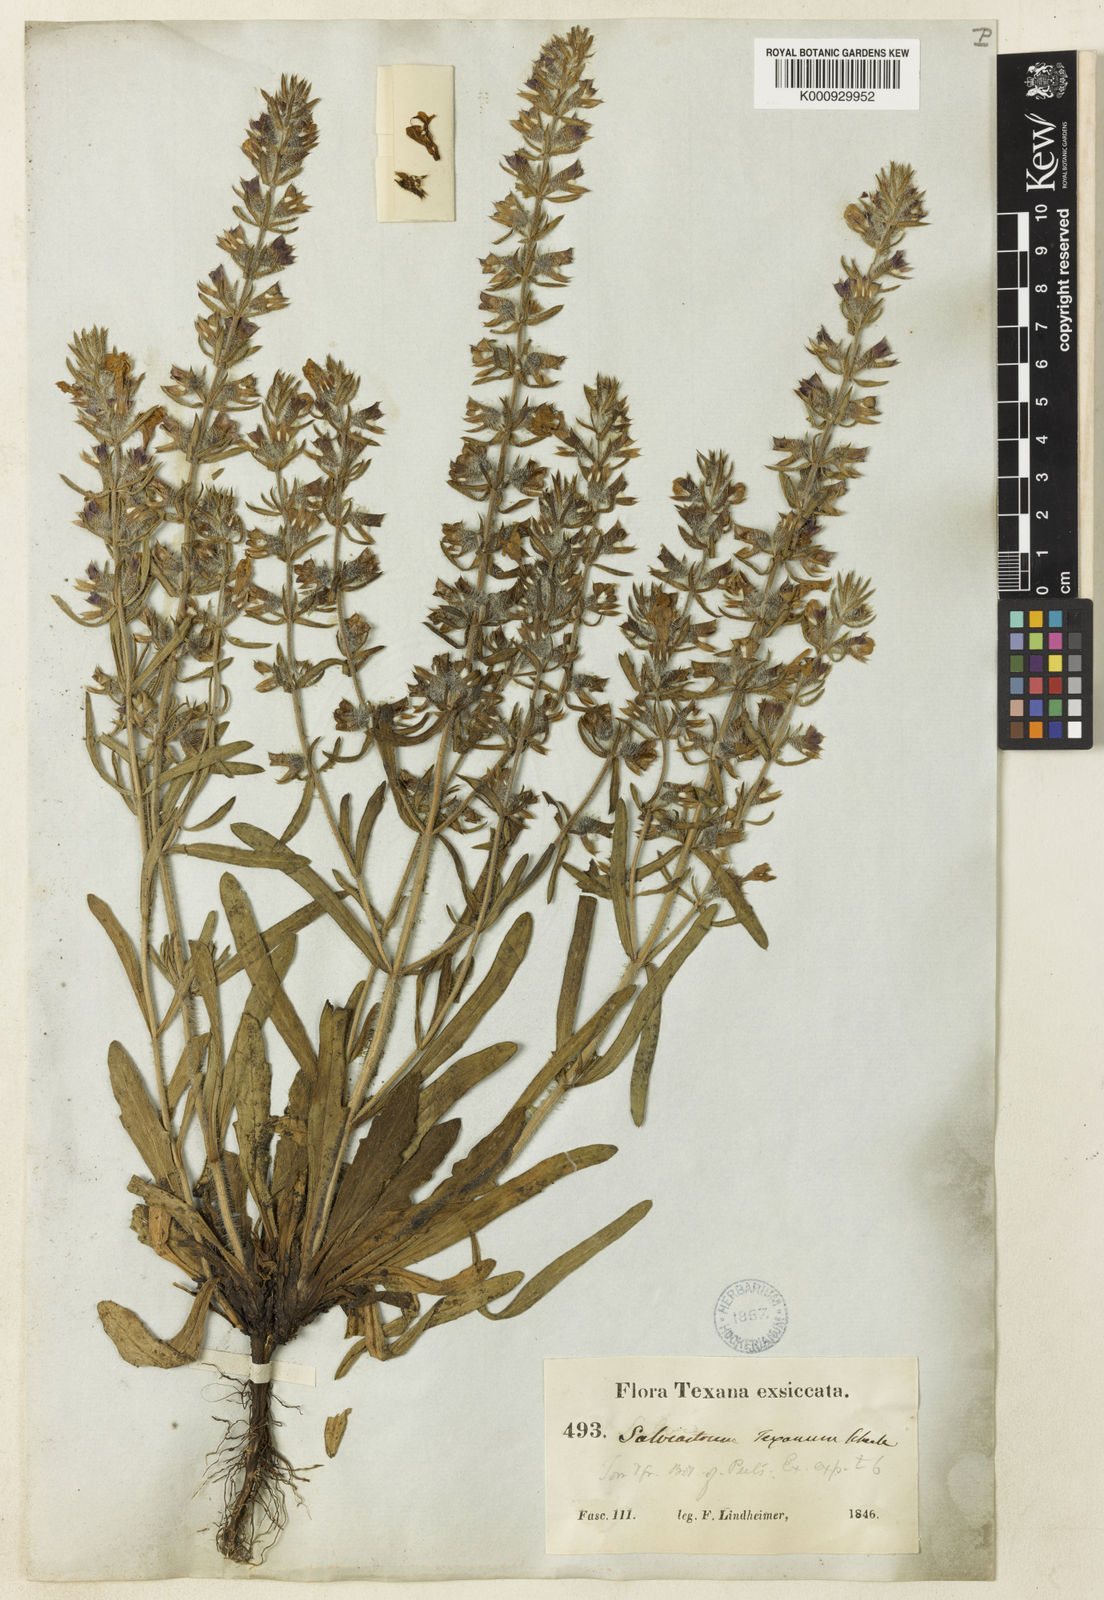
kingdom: Plantae
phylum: Tracheophyta
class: Magnoliopsida
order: Lamiales
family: Lamiaceae
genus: Salvia
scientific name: Salvia texana
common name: Texas sage
